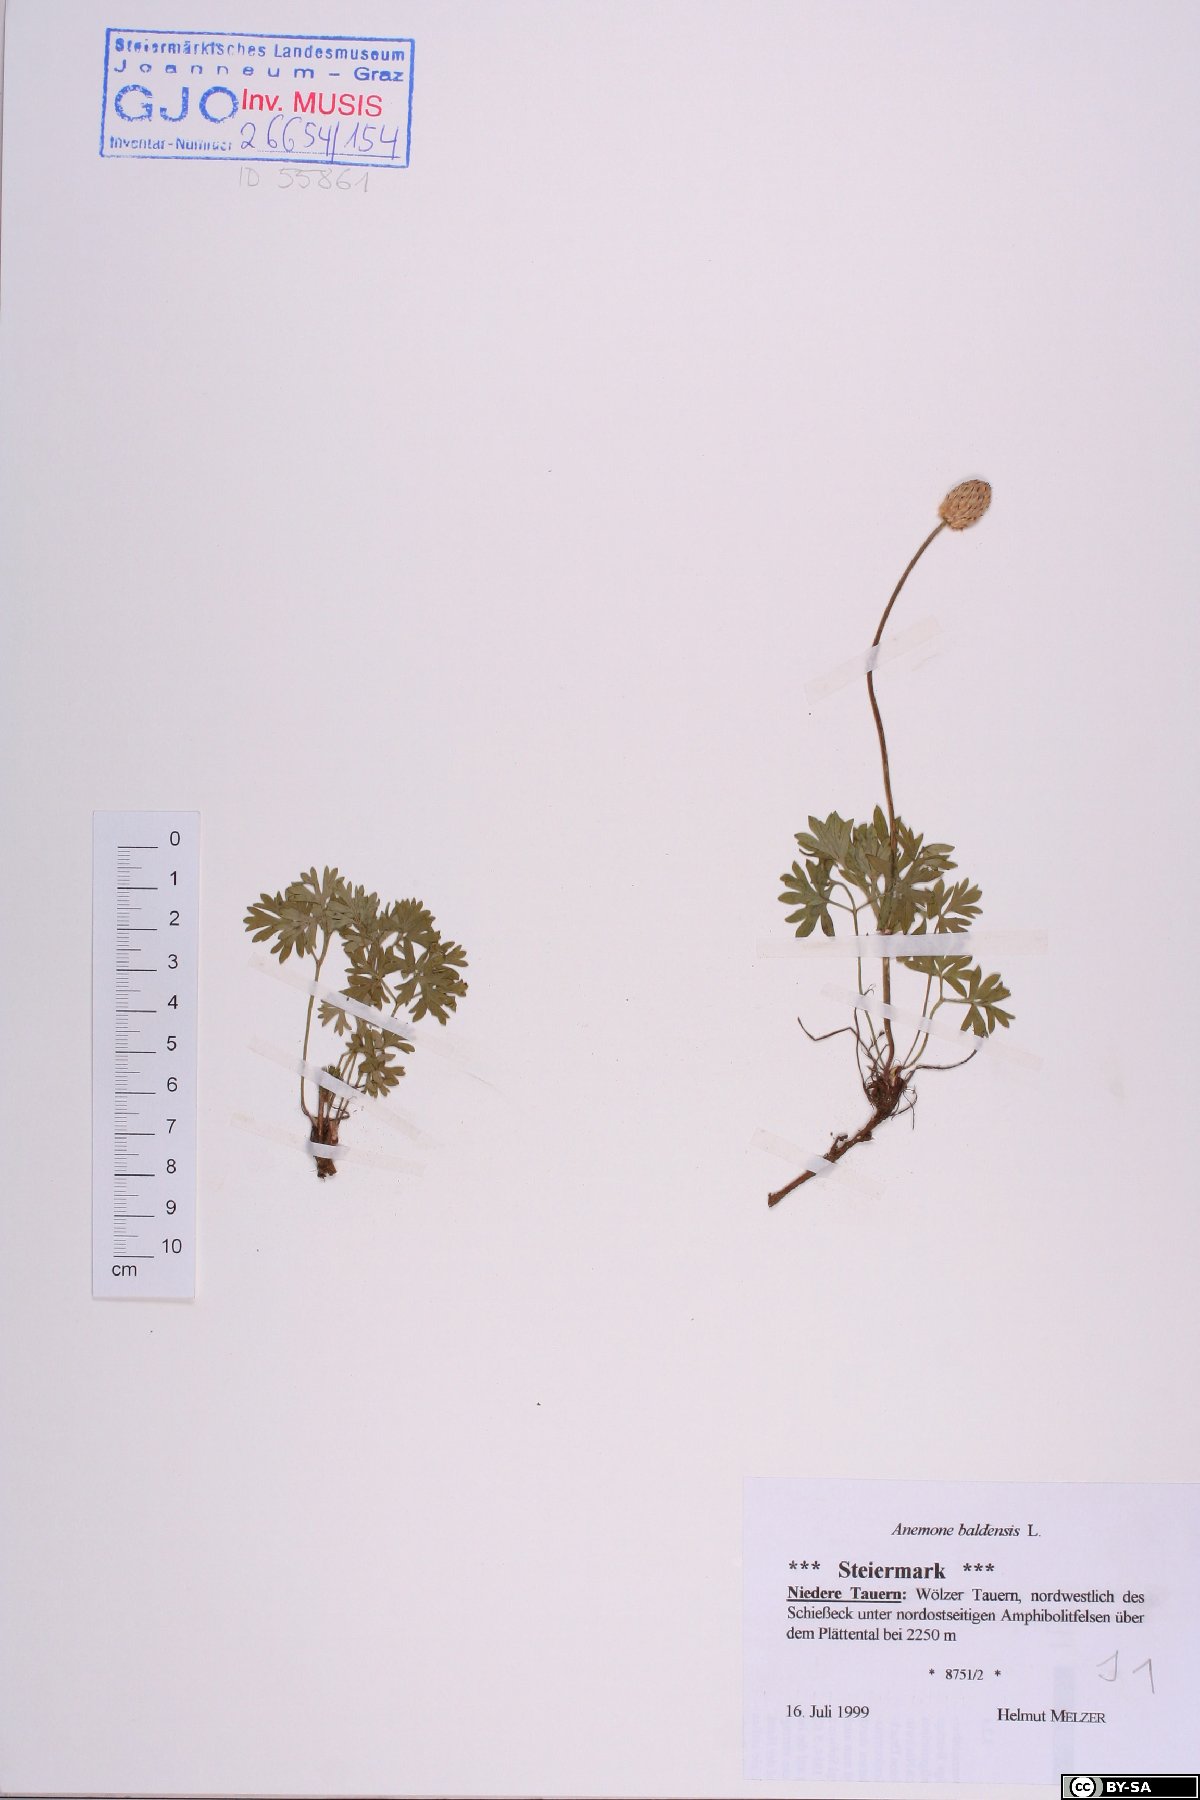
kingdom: Plantae
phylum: Tracheophyta
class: Magnoliopsida
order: Ranunculales
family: Ranunculaceae
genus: Anemone
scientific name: Anemone baldensis
